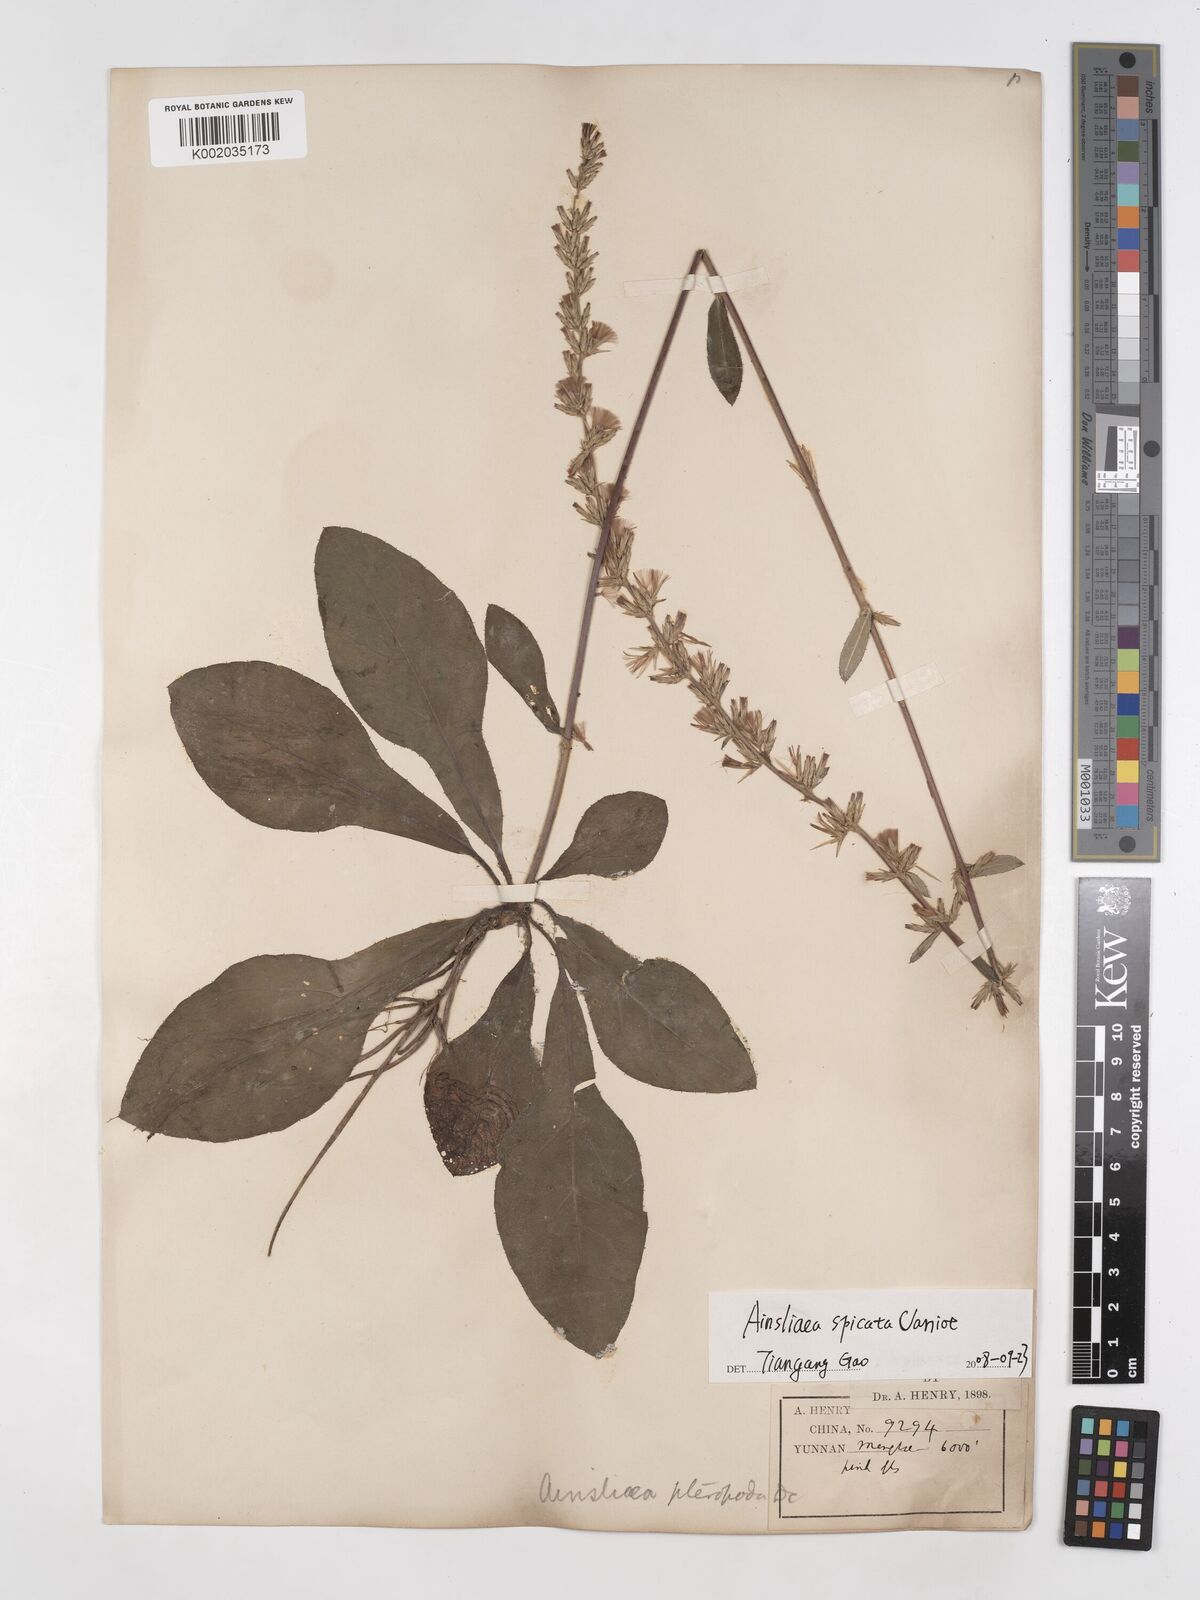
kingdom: Plantae
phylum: Tracheophyta
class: Magnoliopsida
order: Asterales
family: Asteraceae
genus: Ainsliaea
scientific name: Ainsliaea spicata
